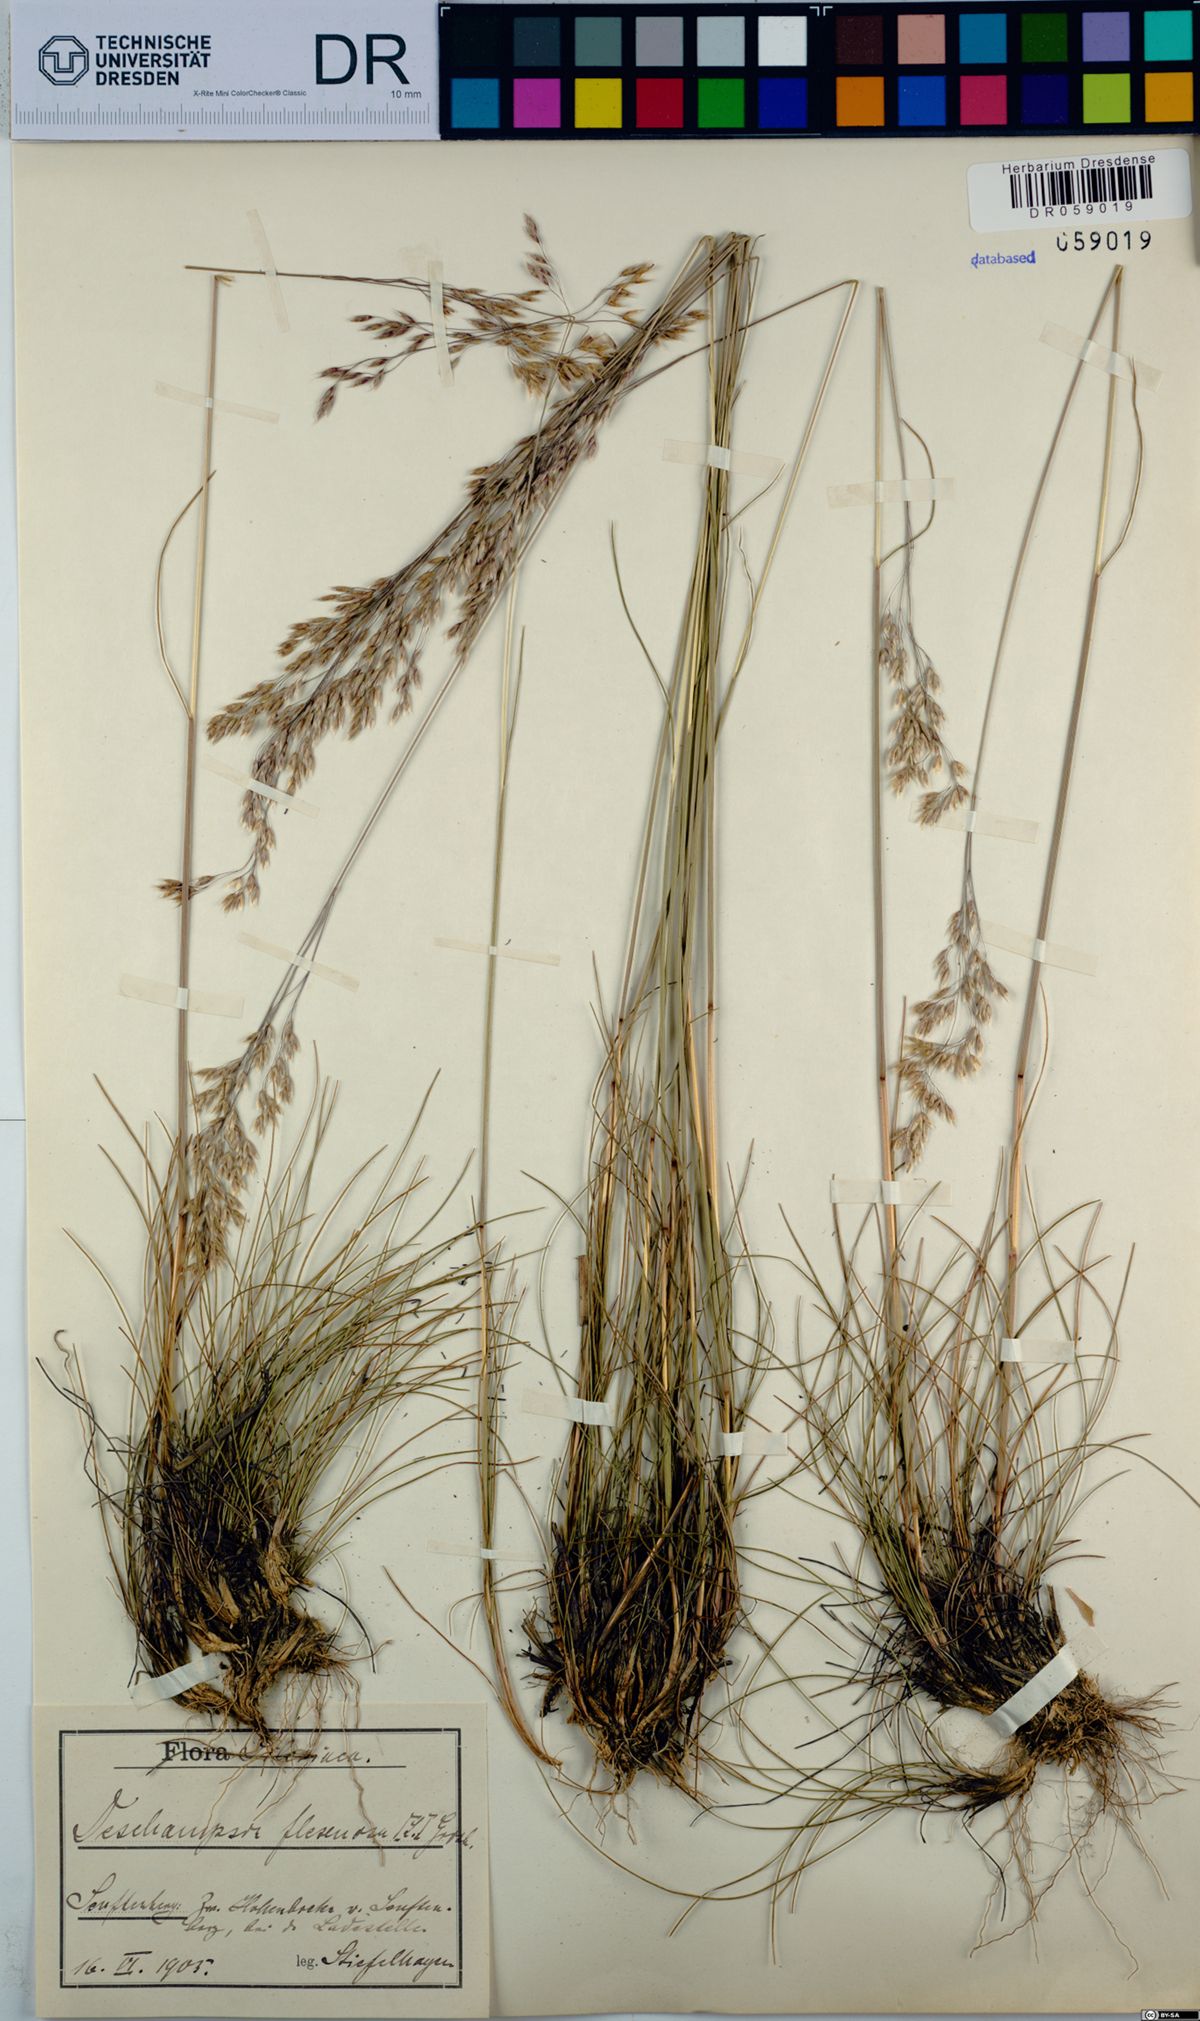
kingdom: Plantae
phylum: Tracheophyta
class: Liliopsida
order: Poales
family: Poaceae
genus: Avenella
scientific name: Avenella flexuosa
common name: Wavy hairgrass
